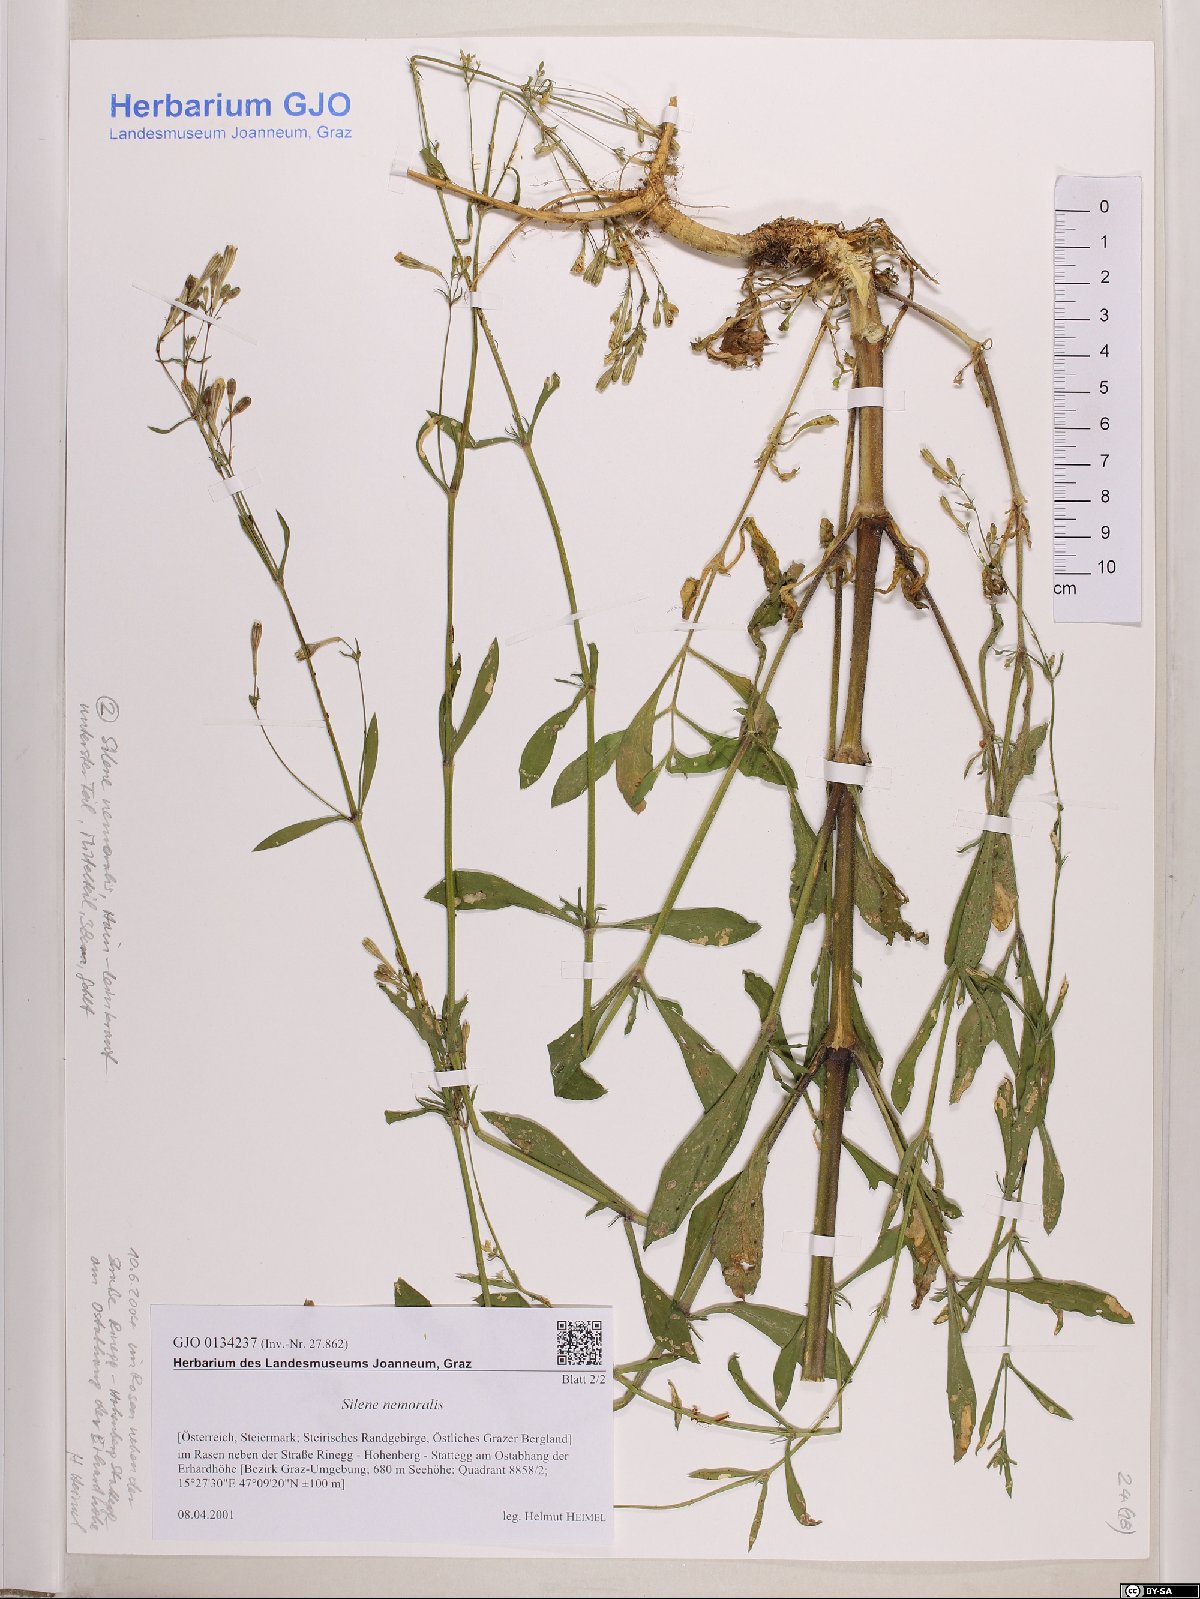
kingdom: Plantae
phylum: Tracheophyta
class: Magnoliopsida
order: Caryophyllales
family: Caryophyllaceae
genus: Silene
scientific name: Silene nemoralis
